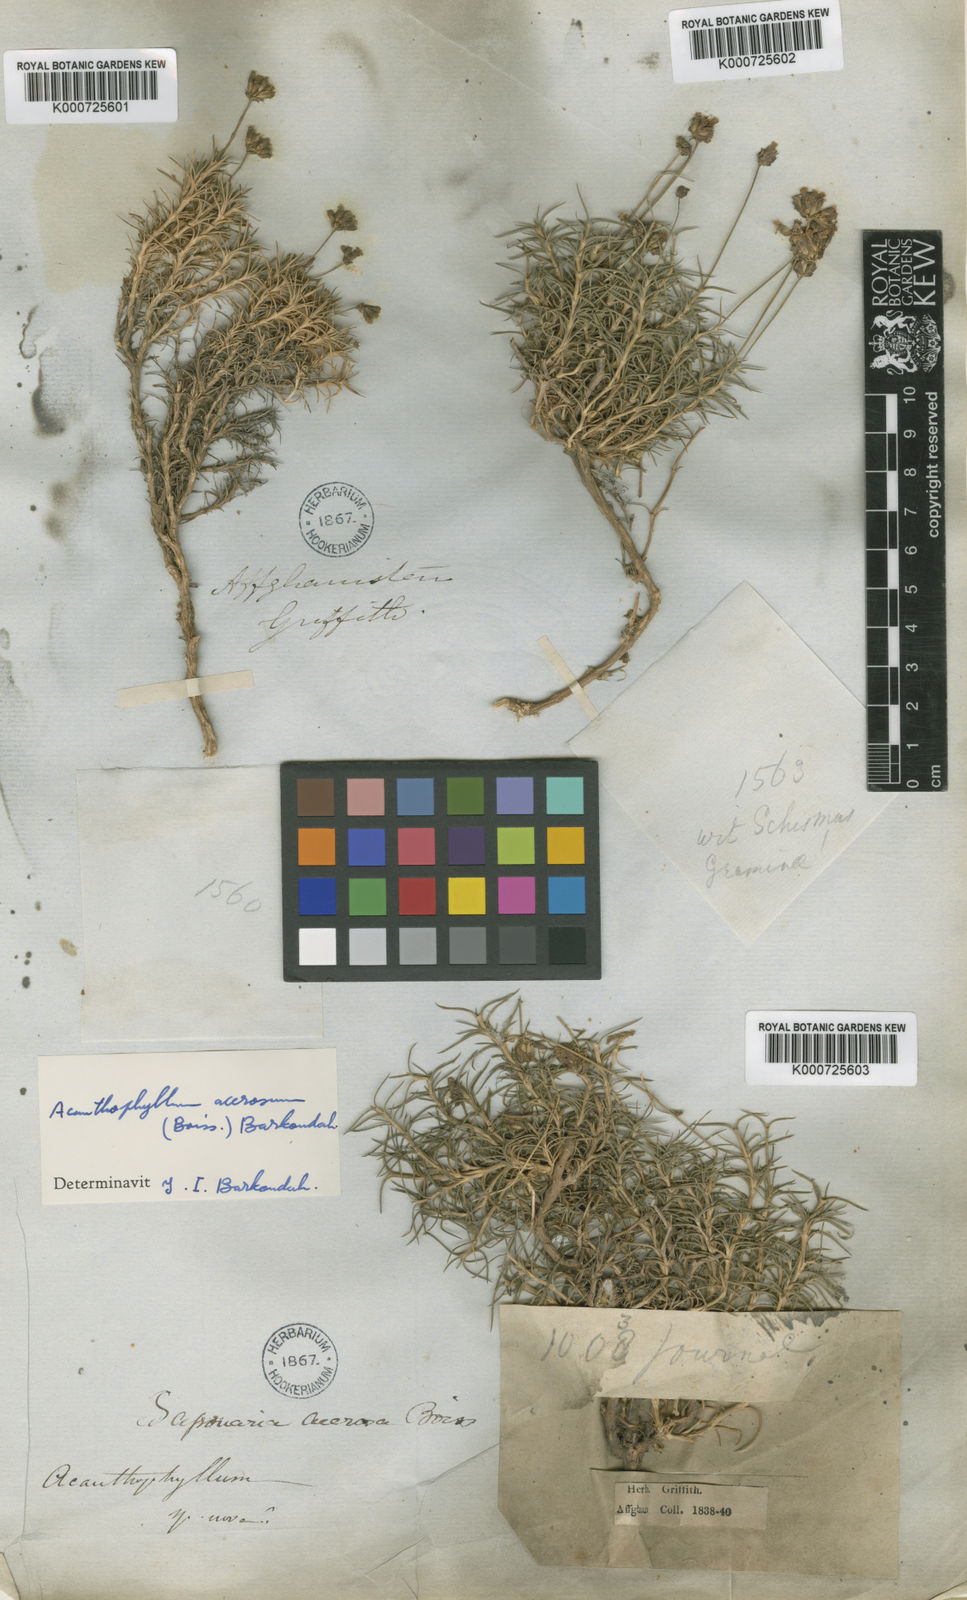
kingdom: Plantae
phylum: Tracheophyta
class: Magnoliopsida
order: Caryophyllales
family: Caryophyllaceae
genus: Acanthophyllum
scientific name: Acanthophyllum
